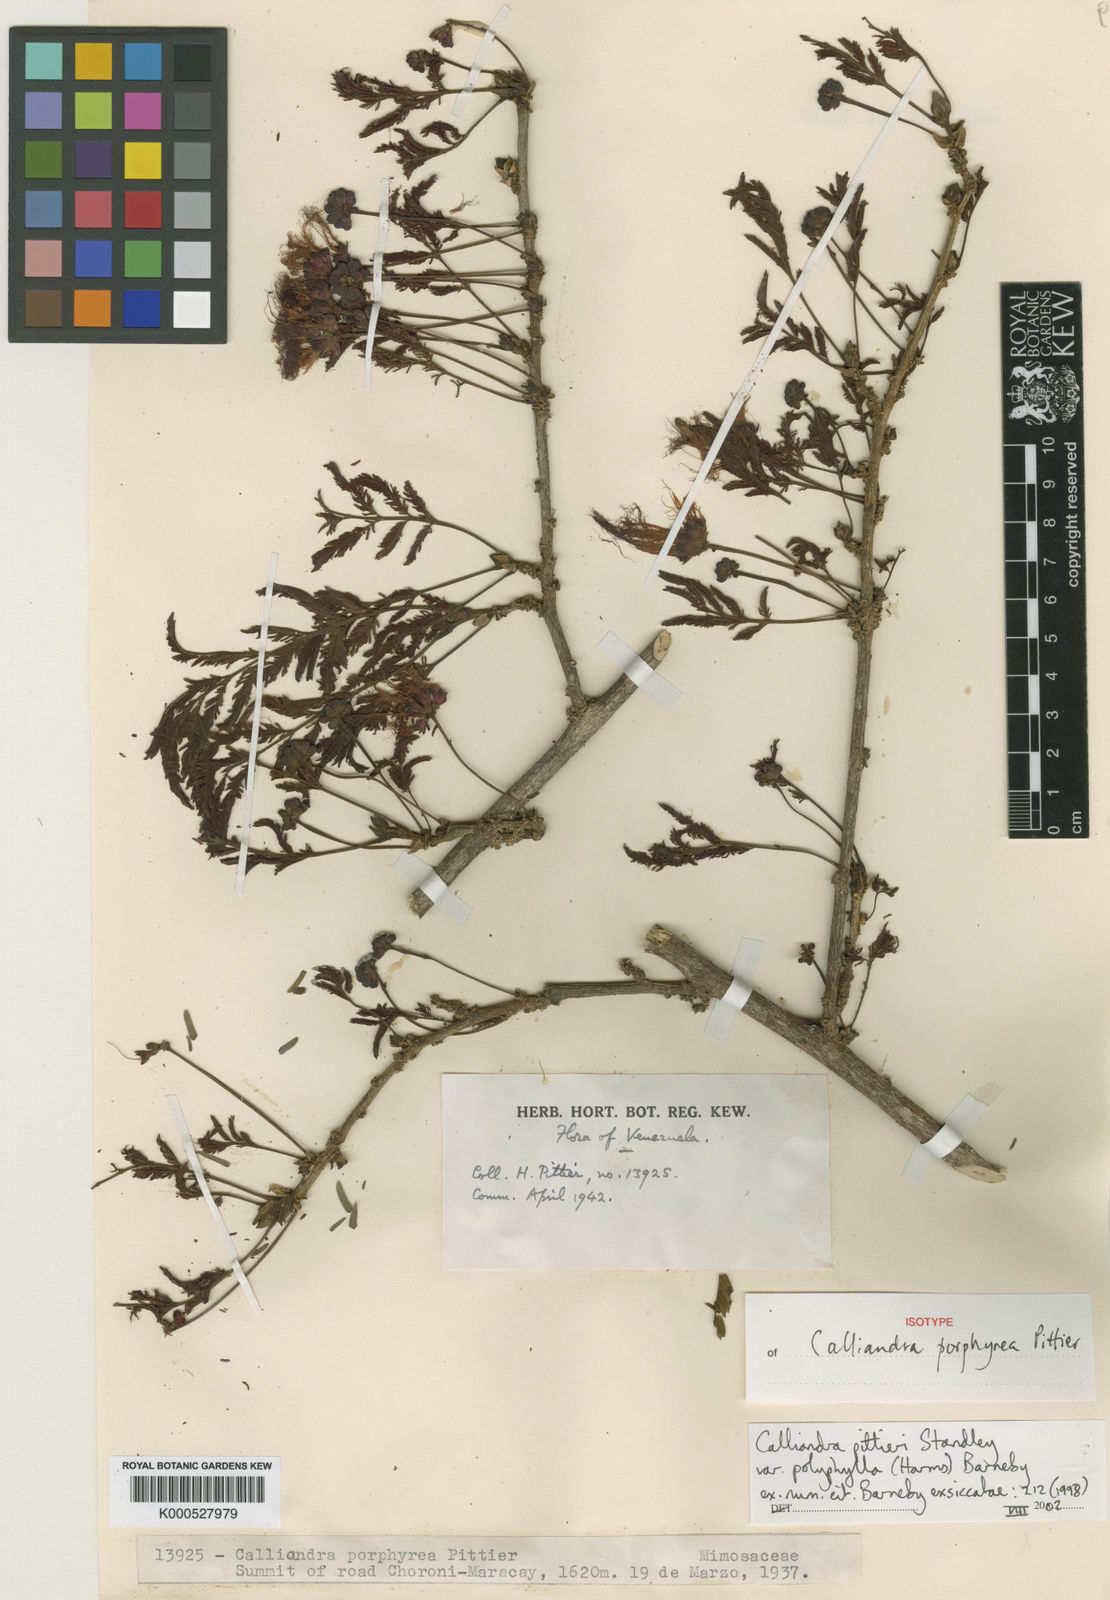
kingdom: Plantae
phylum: Tracheophyta
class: Magnoliopsida
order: Fabales
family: Fabaceae
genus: Calliandra
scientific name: Calliandra pittieri
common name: Carbonero de avenidas
